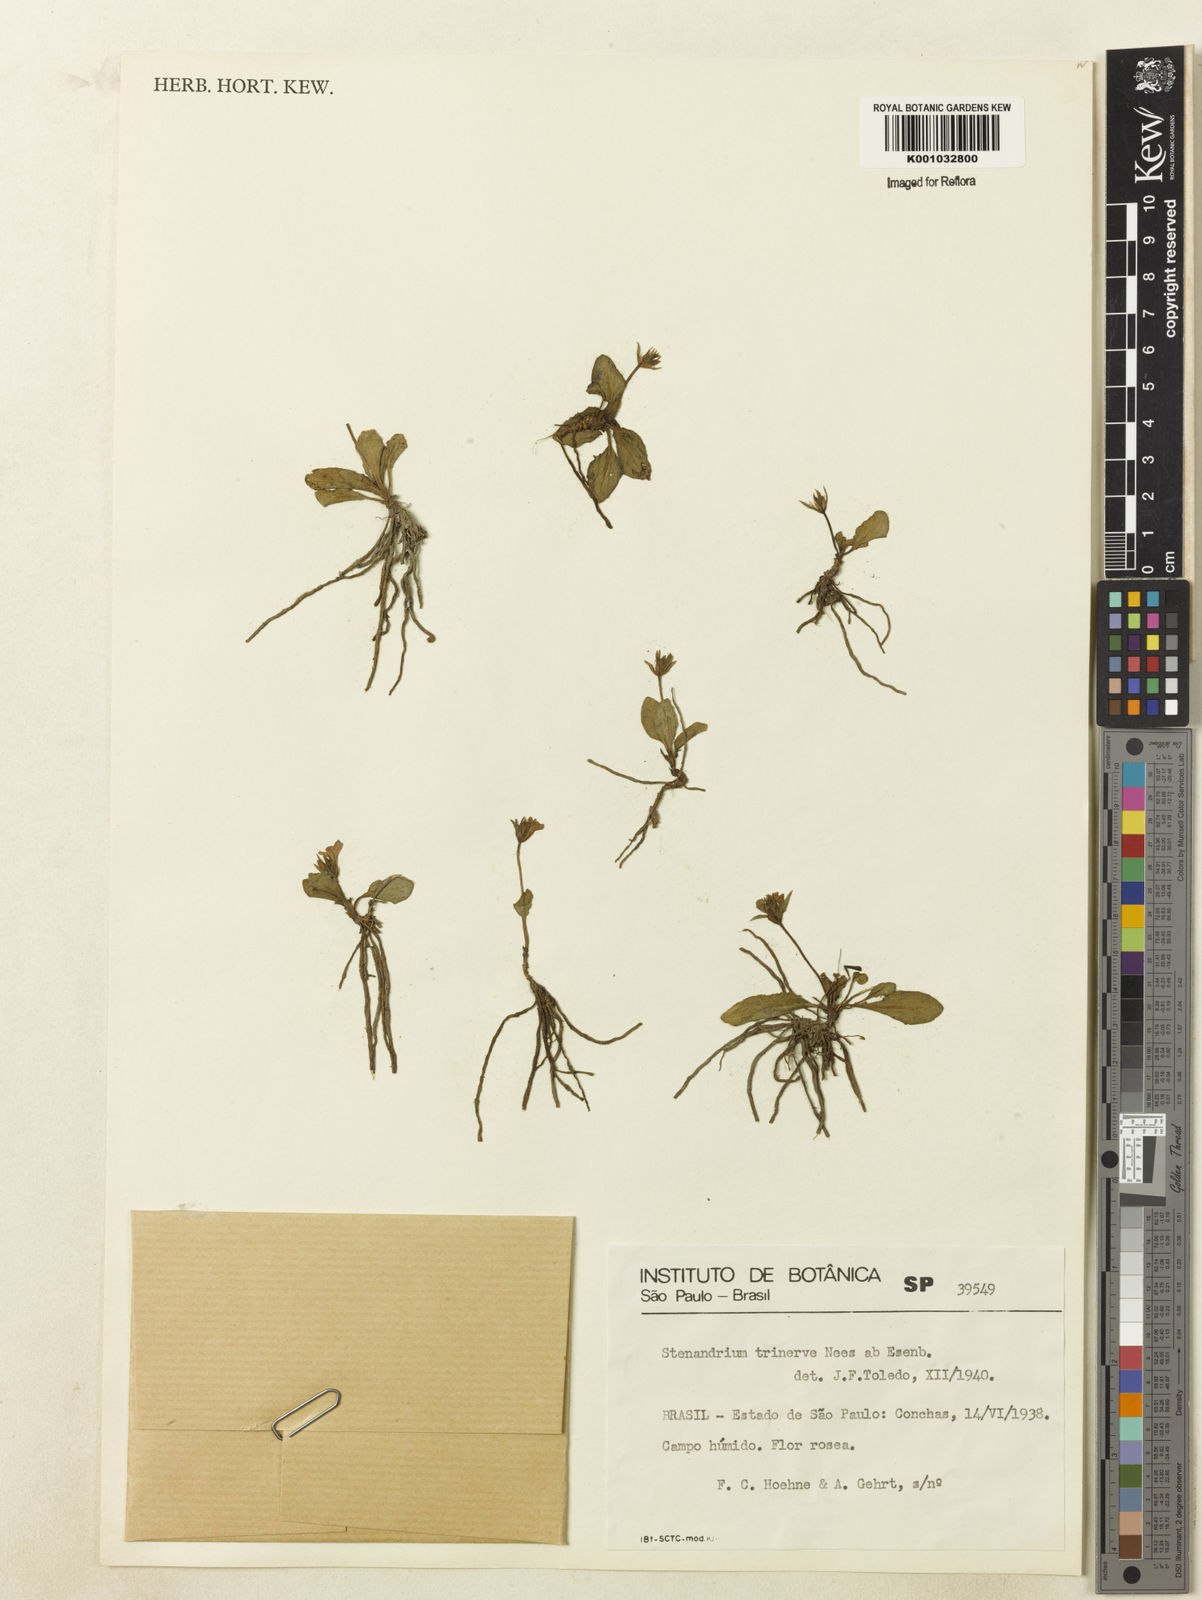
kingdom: Plantae
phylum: Tracheophyta
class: Magnoliopsida
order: Lamiales
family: Acanthaceae
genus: Stenandrium
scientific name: Stenandrium dulce
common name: Pinklet
